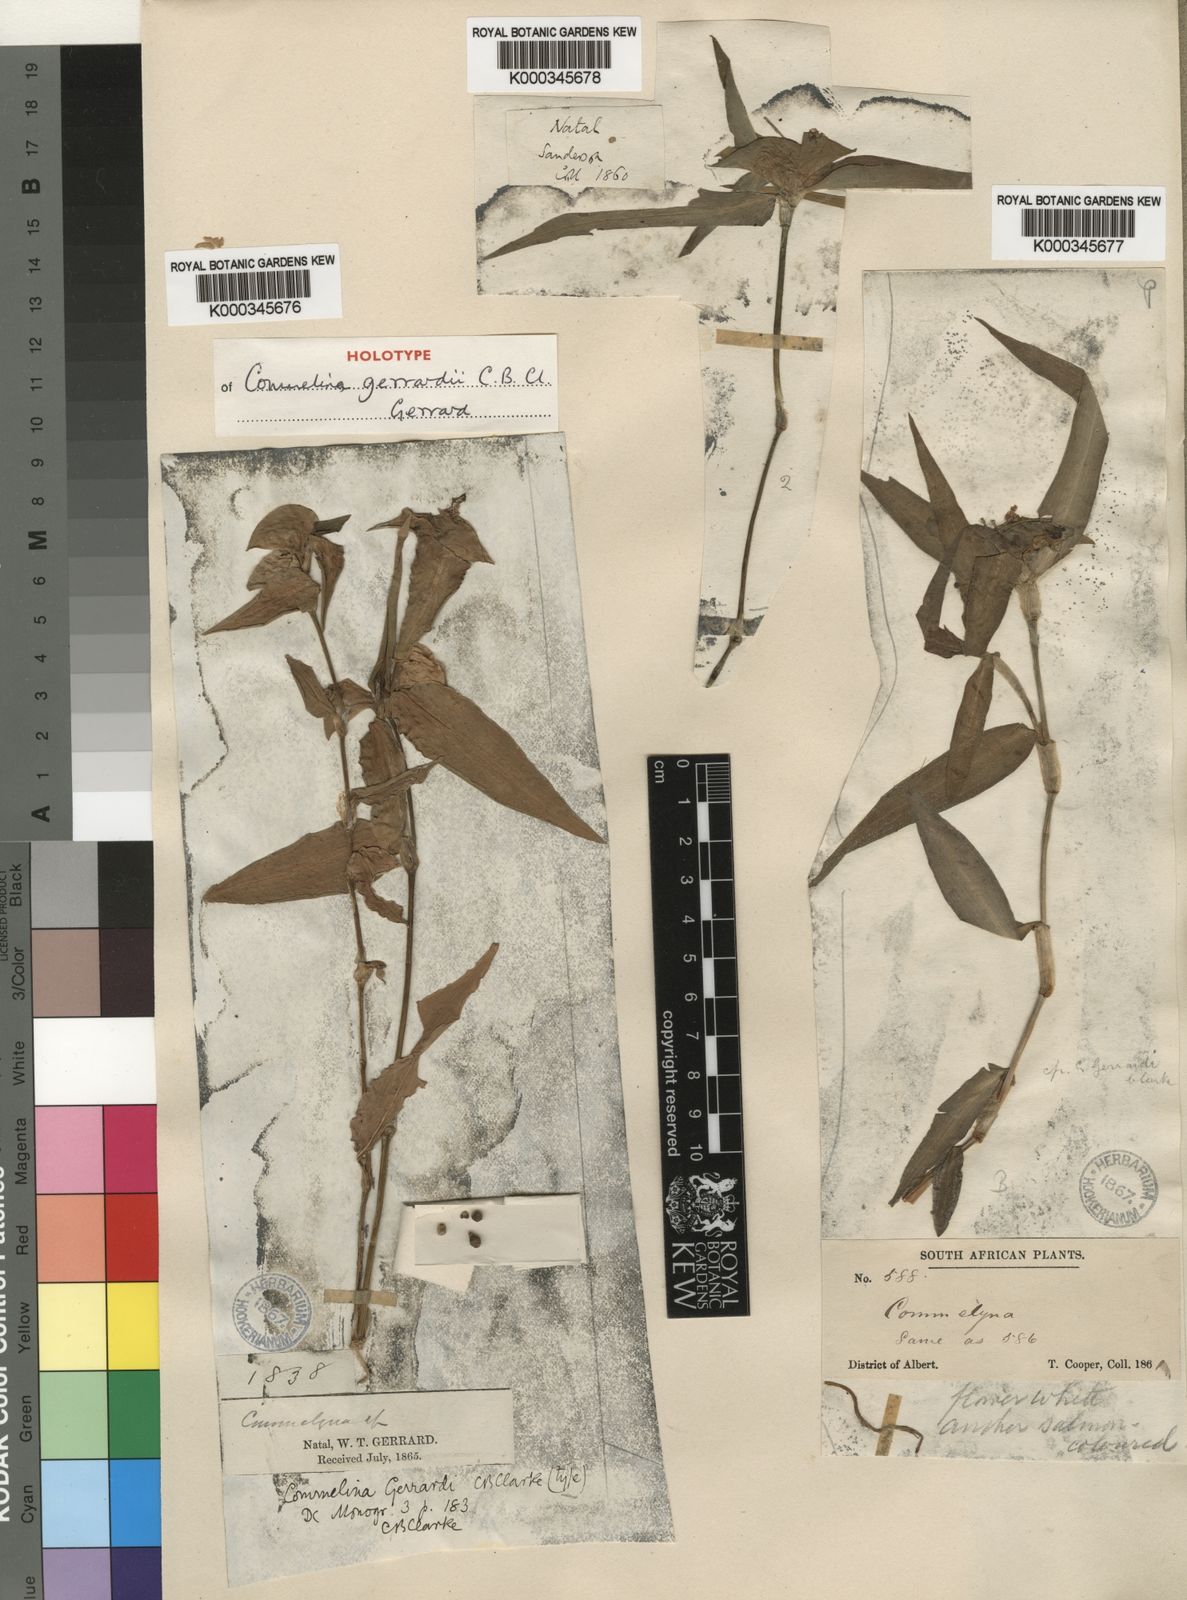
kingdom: Plantae
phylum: Tracheophyta
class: Liliopsida
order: Commelinales
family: Commelinaceae
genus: Commelina
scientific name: Commelina erecta
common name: Blousel blommetjie
